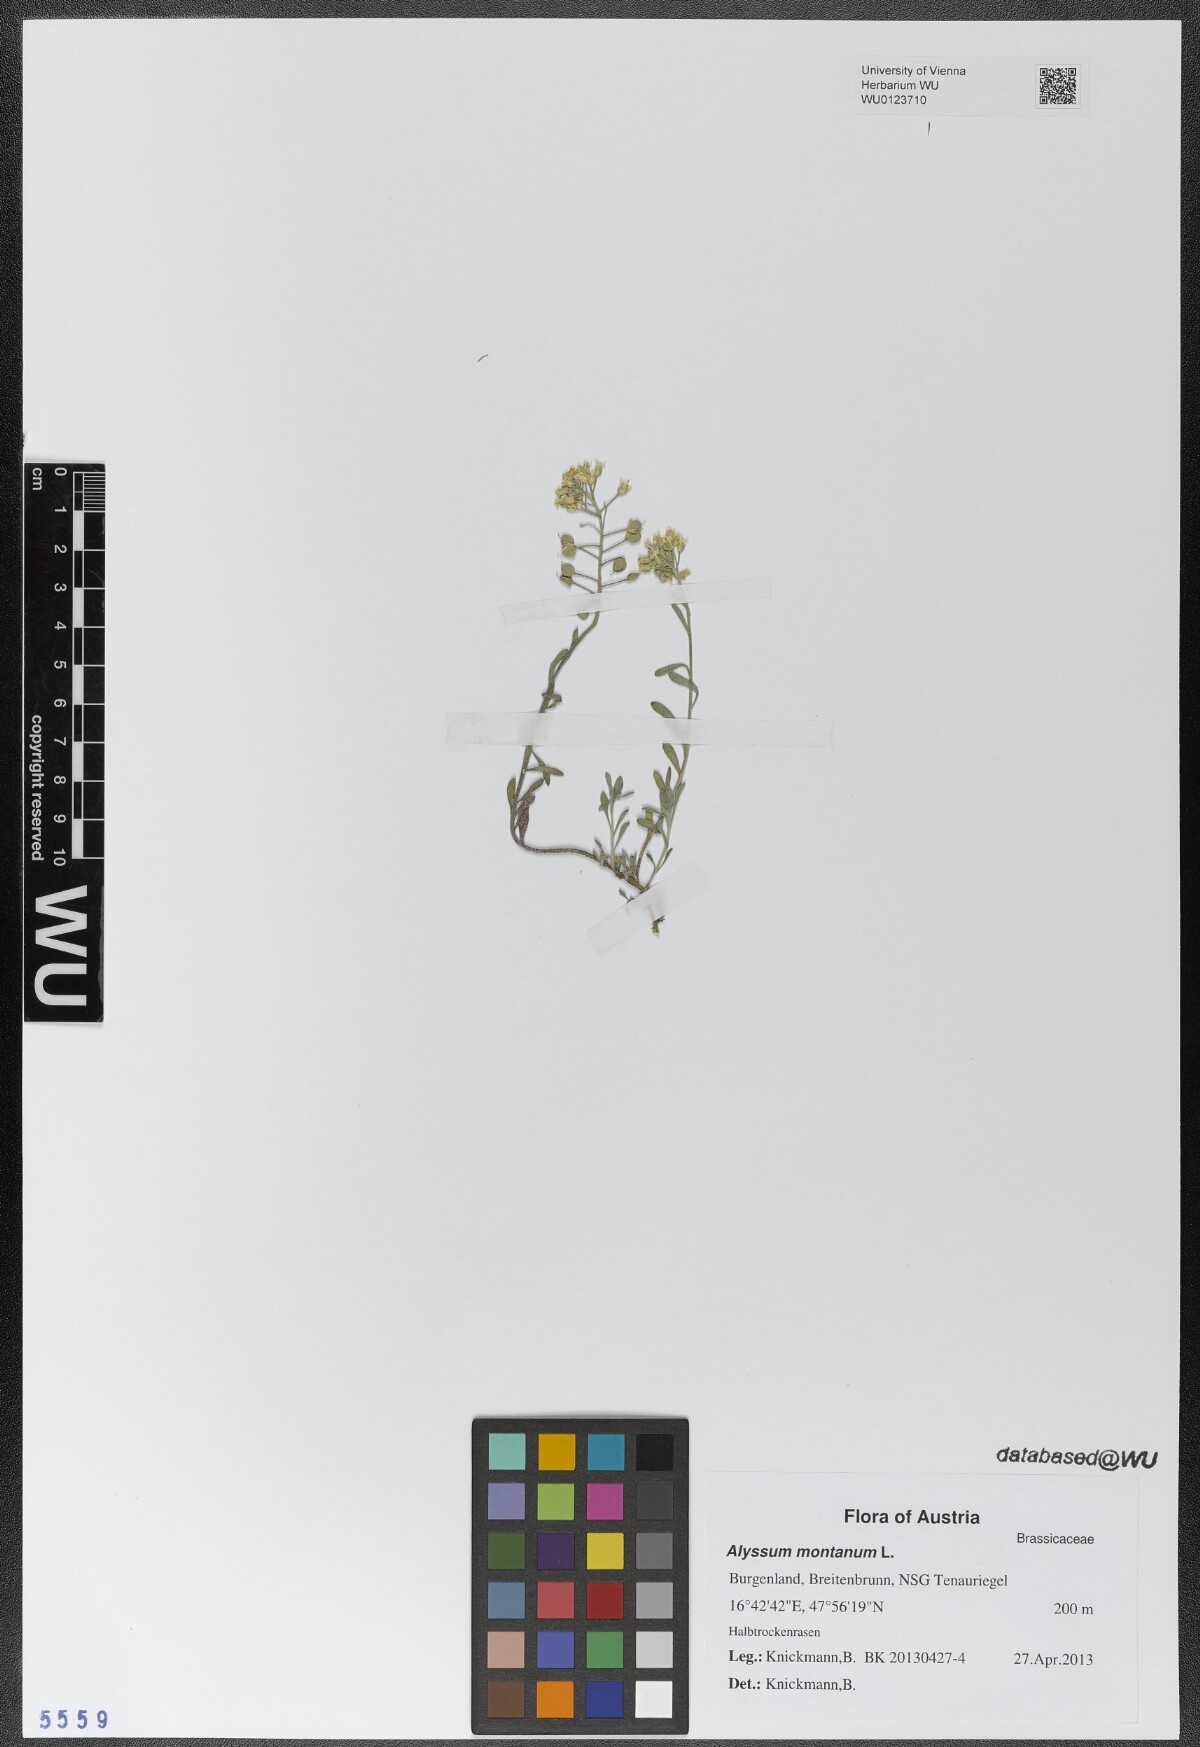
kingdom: Plantae
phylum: Tracheophyta
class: Magnoliopsida
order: Brassicales
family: Brassicaceae
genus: Alyssum
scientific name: Alyssum montanum
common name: Mountain alison
